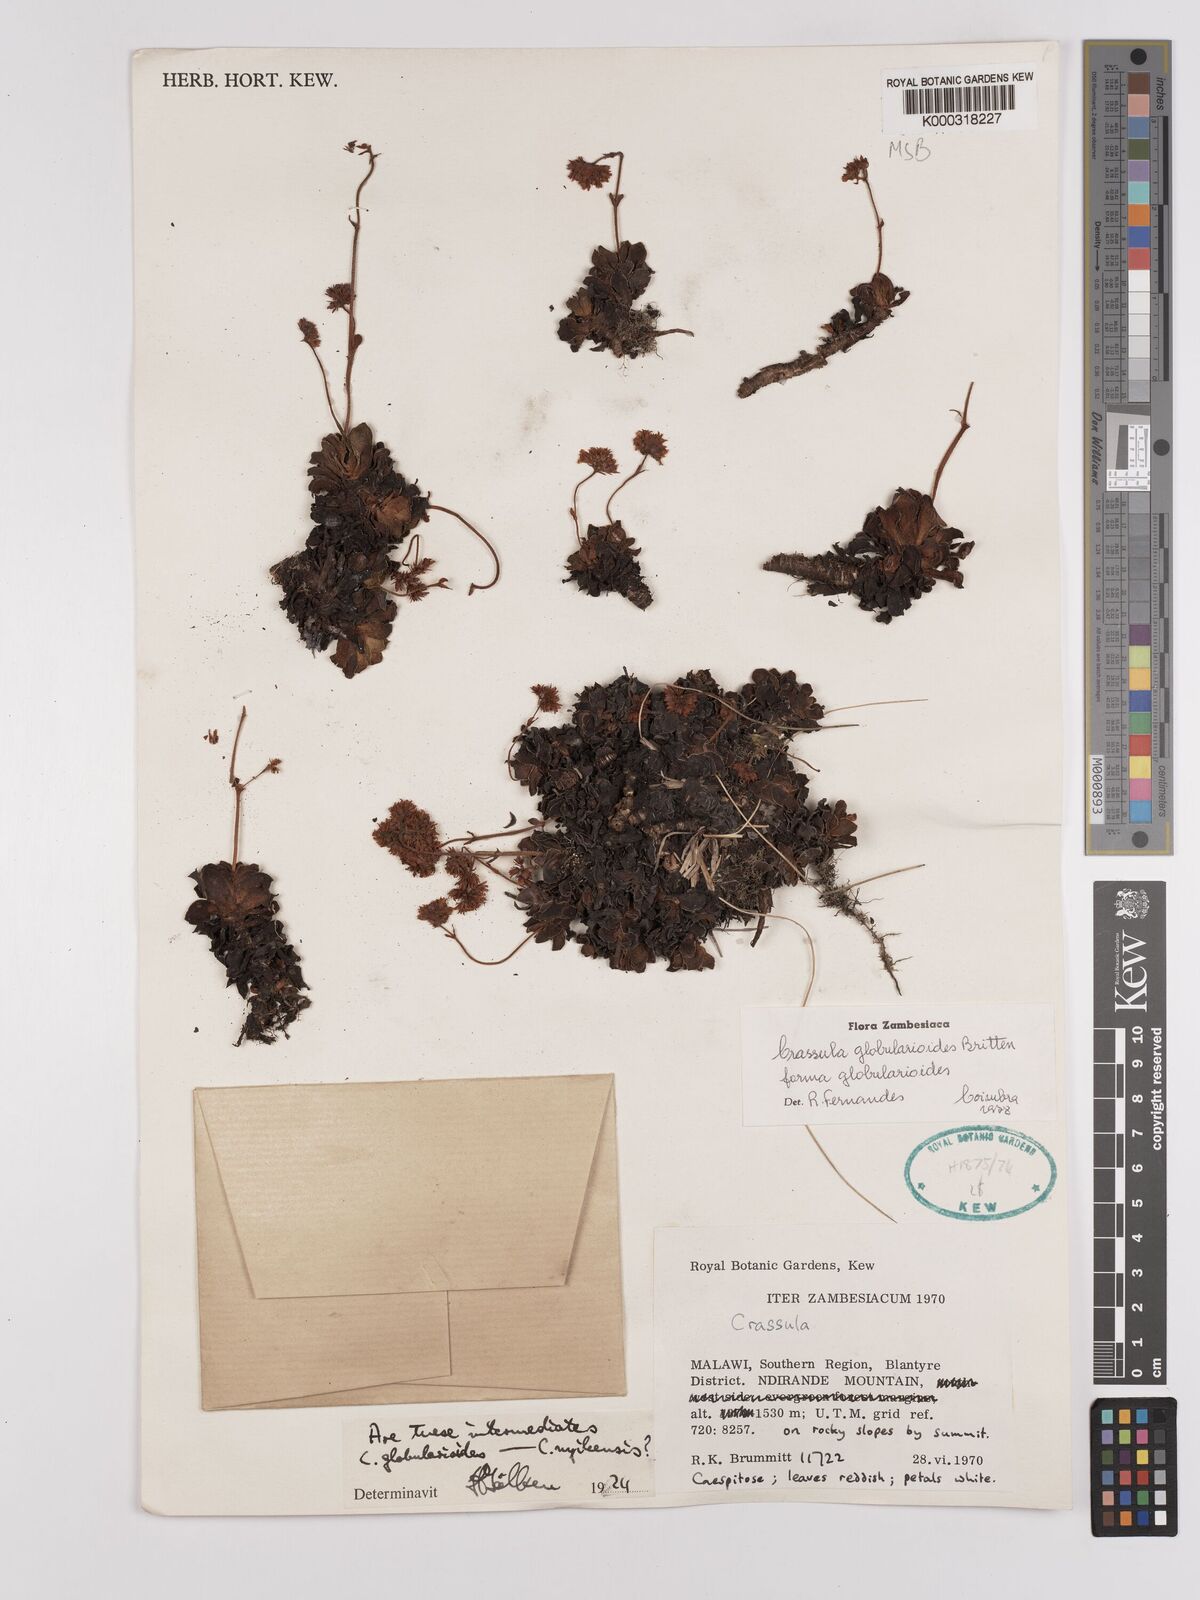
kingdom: Plantae
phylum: Tracheophyta
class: Magnoliopsida
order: Saxifragales
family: Crassulaceae
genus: Crassula
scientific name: Crassula globularioides
